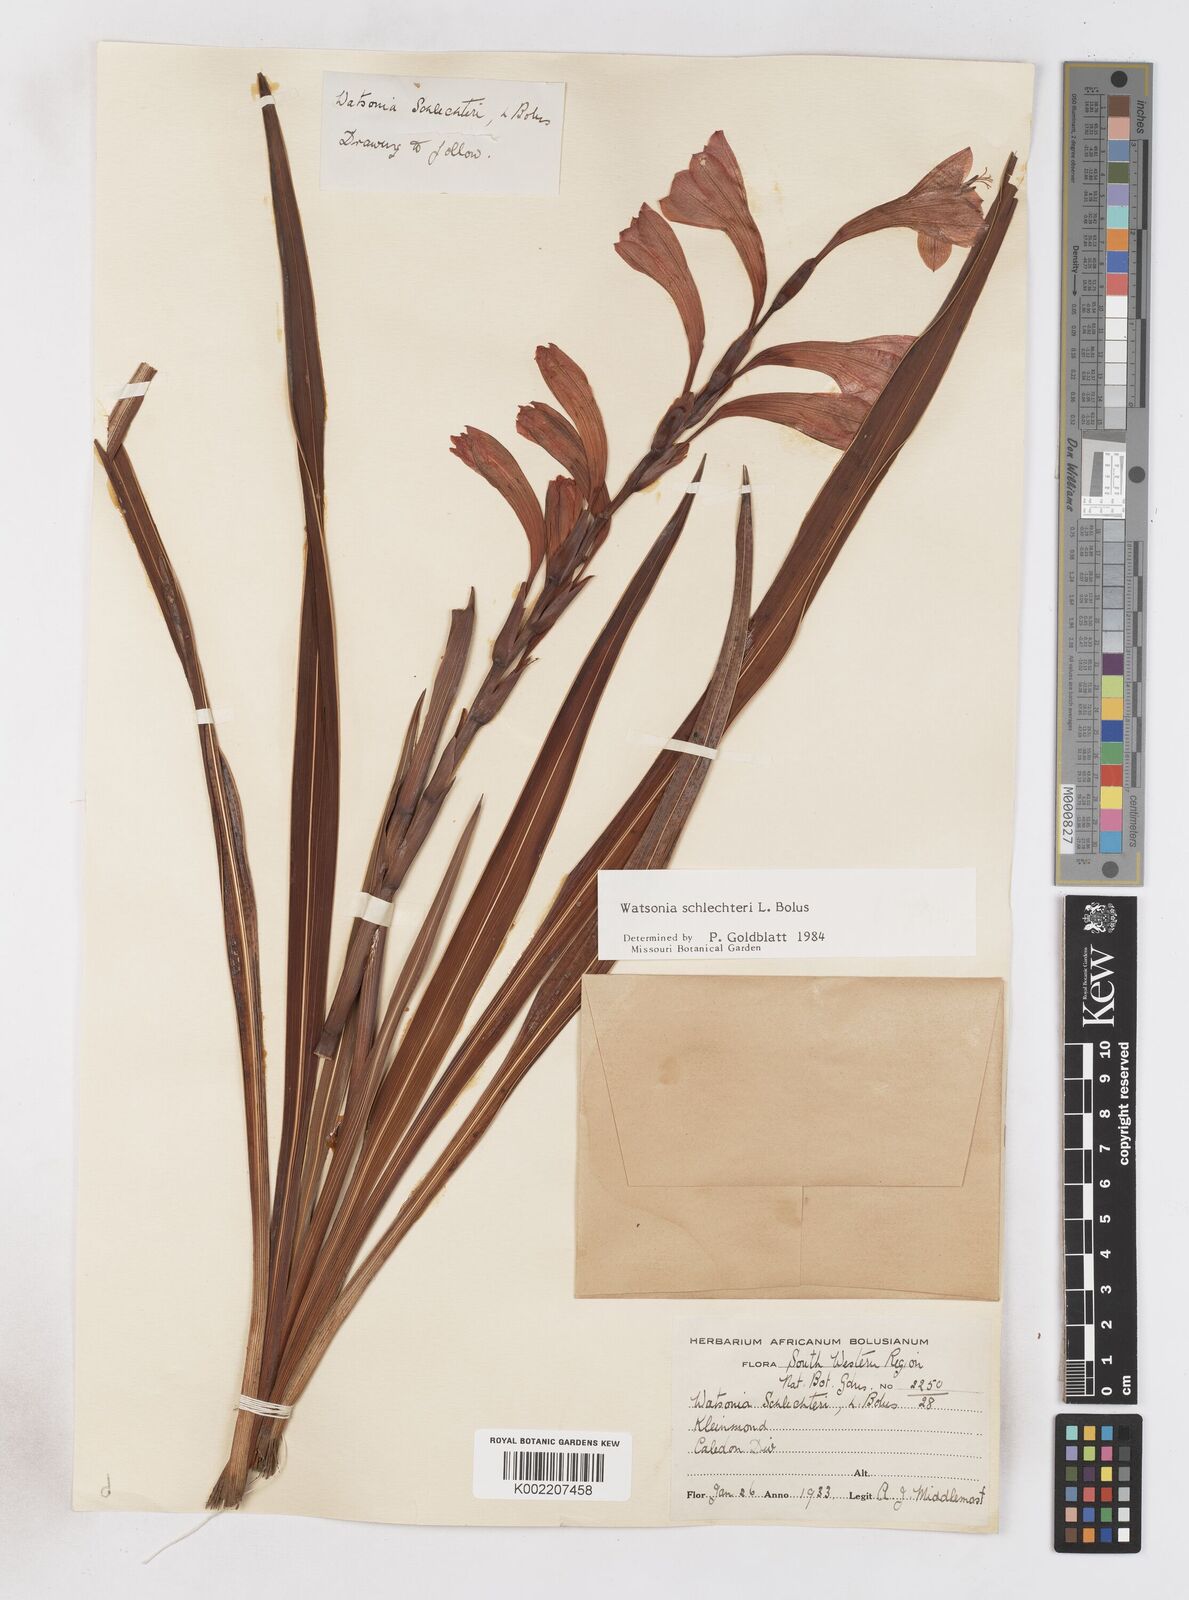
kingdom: Plantae
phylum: Tracheophyta
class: Liliopsida
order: Asparagales
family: Iridaceae
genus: Watsonia
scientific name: Watsonia schlechteri
